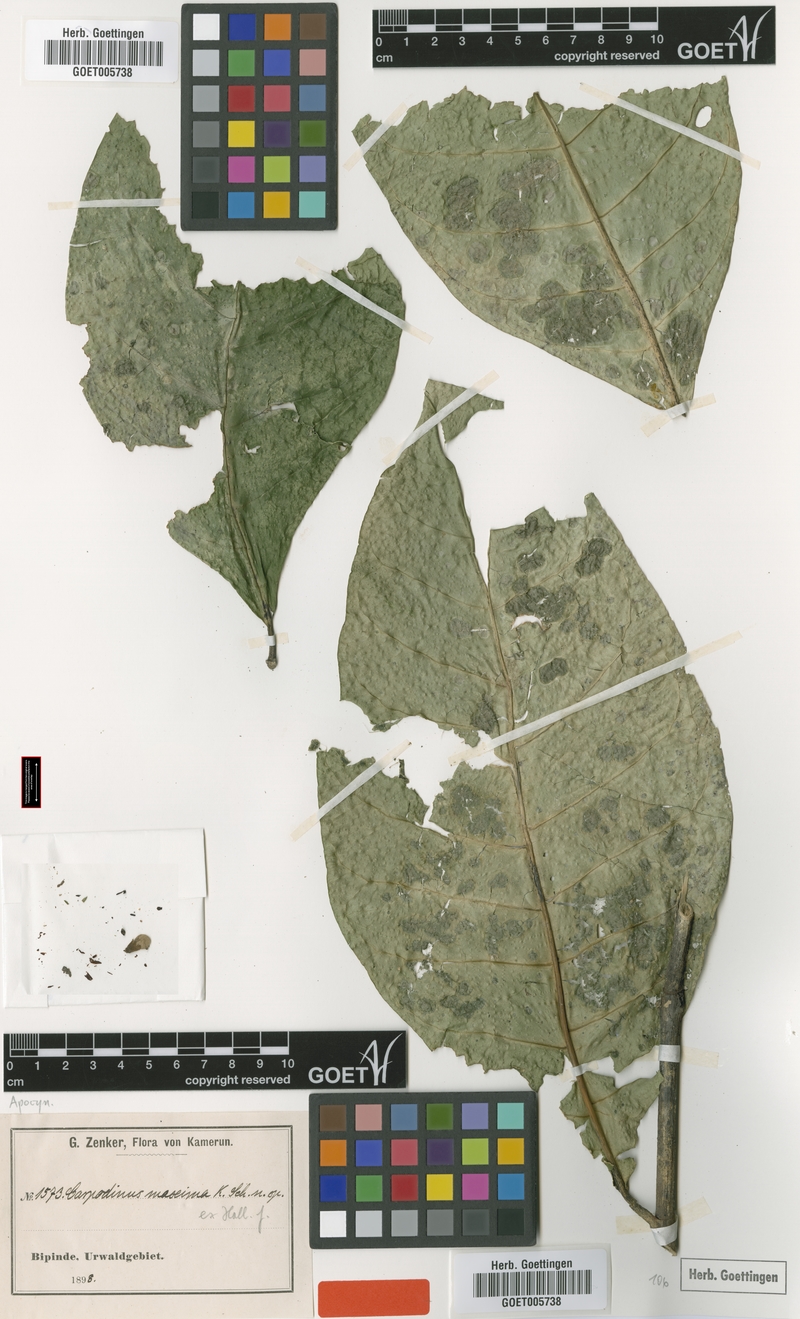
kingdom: Plantae
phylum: Tracheophyta
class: Magnoliopsida
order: Gentianales
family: Apocynaceae
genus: Landolphia
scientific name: Landolphia maxima
